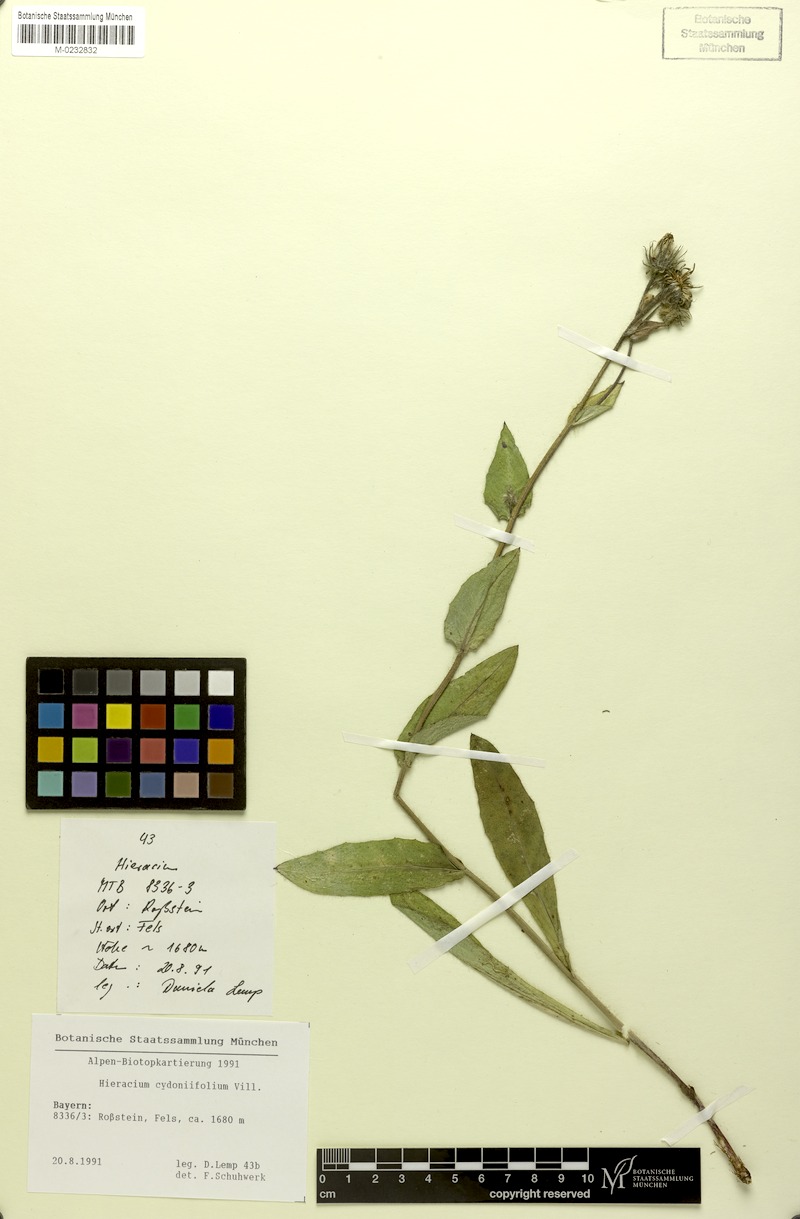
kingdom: Plantae
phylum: Tracheophyta
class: Magnoliopsida
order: Asterales
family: Asteraceae
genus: Hieracium
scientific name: Hieracium cydoniifolium
